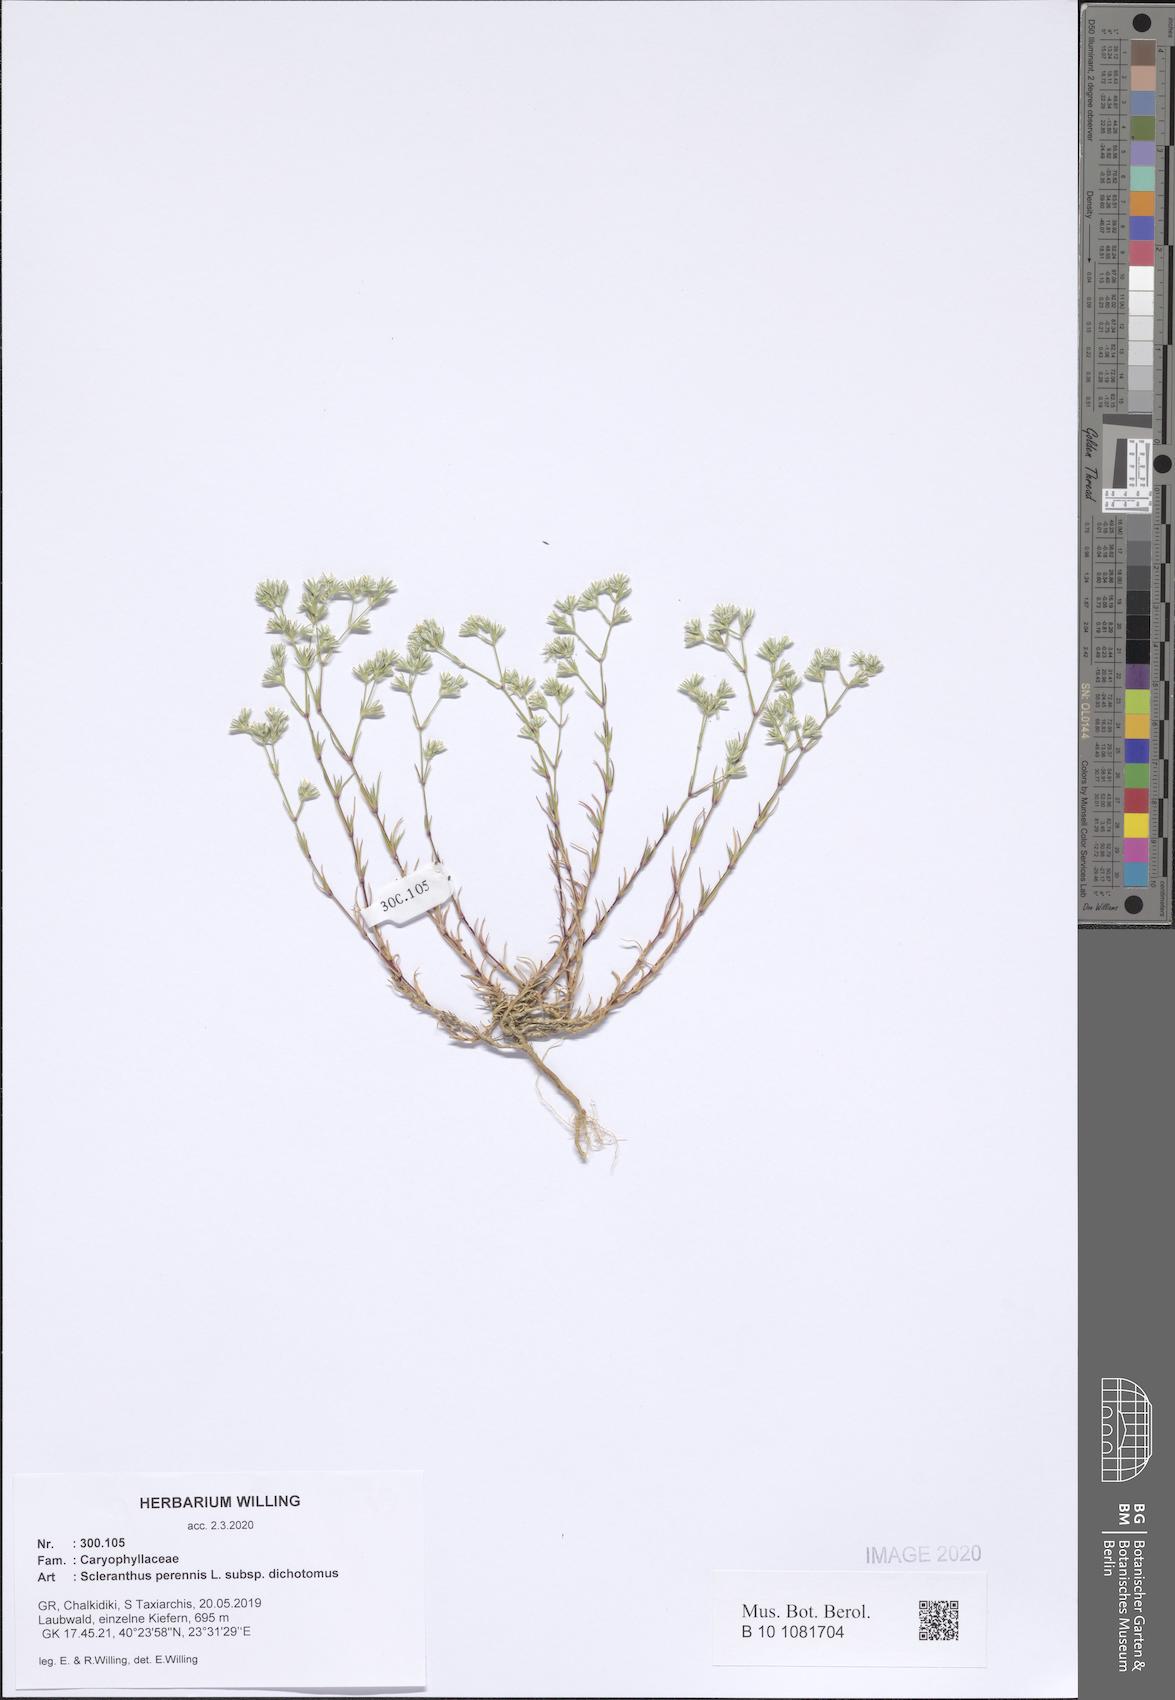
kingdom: Plantae
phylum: Tracheophyta
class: Magnoliopsida
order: Caryophyllales
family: Caryophyllaceae
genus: Scleranthus
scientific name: Scleranthus perennis
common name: Perennial knawel
